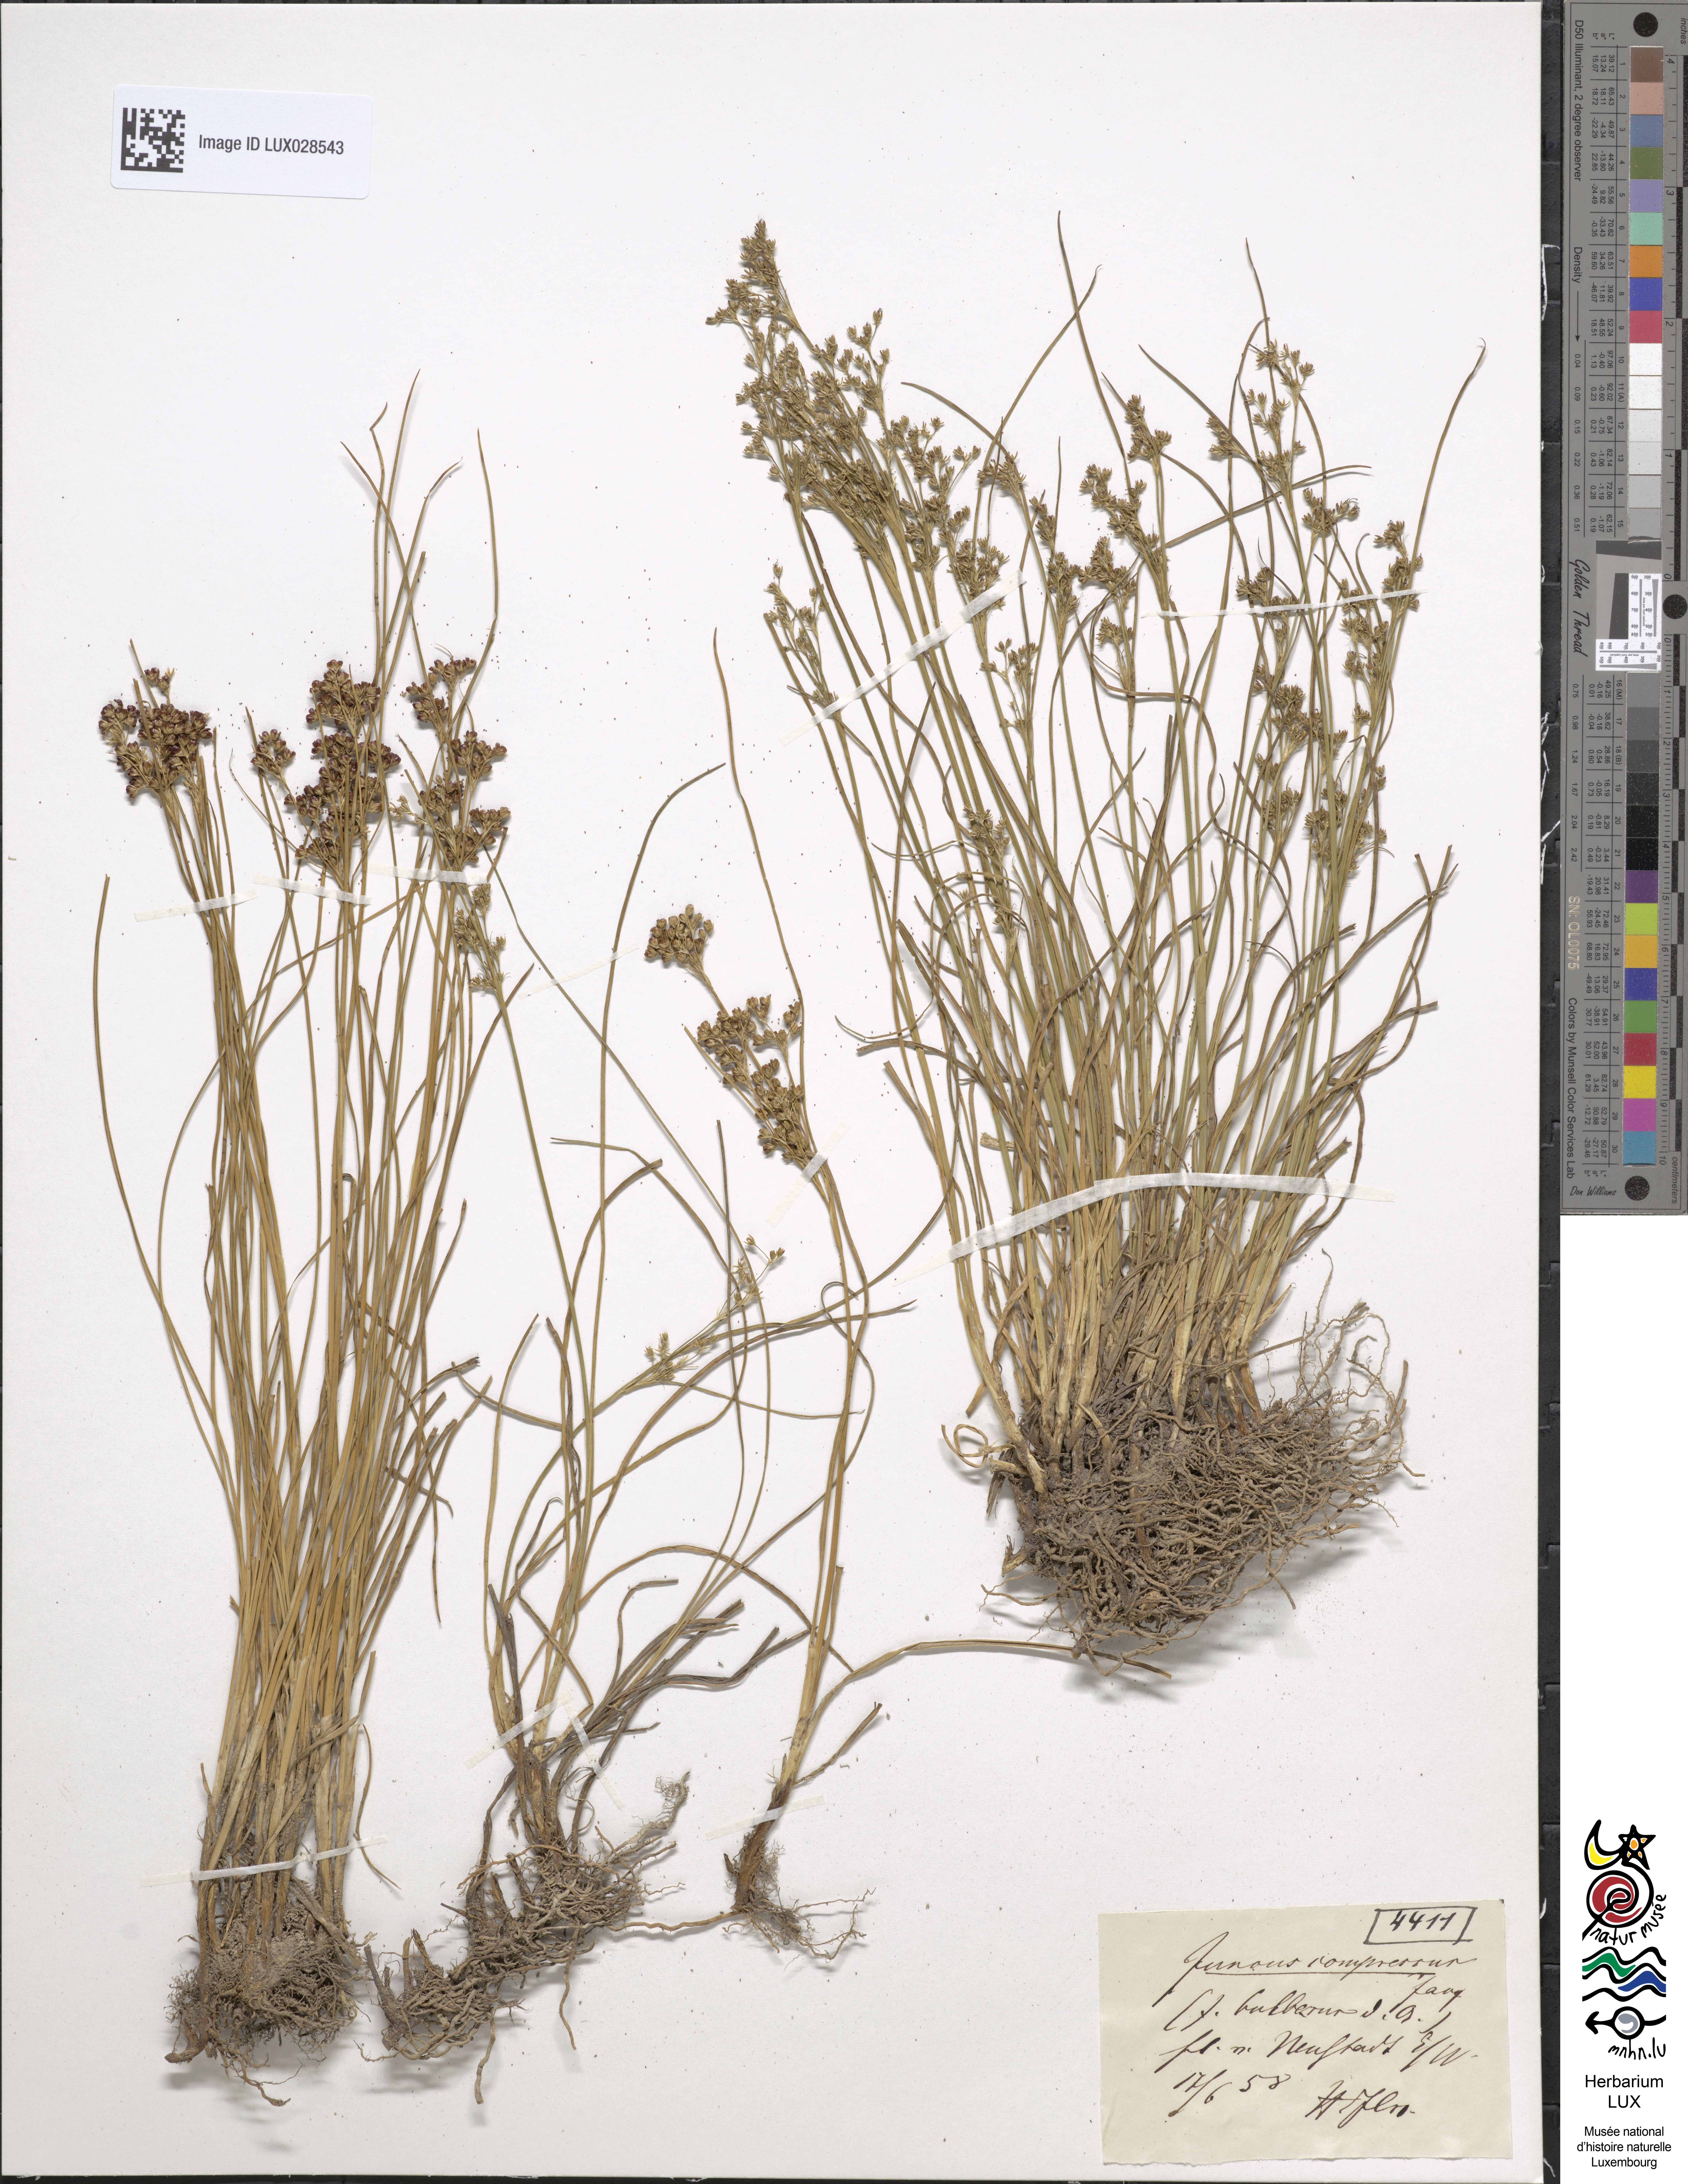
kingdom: Plantae
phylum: Tracheophyta
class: Liliopsida
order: Poales
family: Juncaceae
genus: Juncus
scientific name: Juncus compressus
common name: Round-fruited rush
